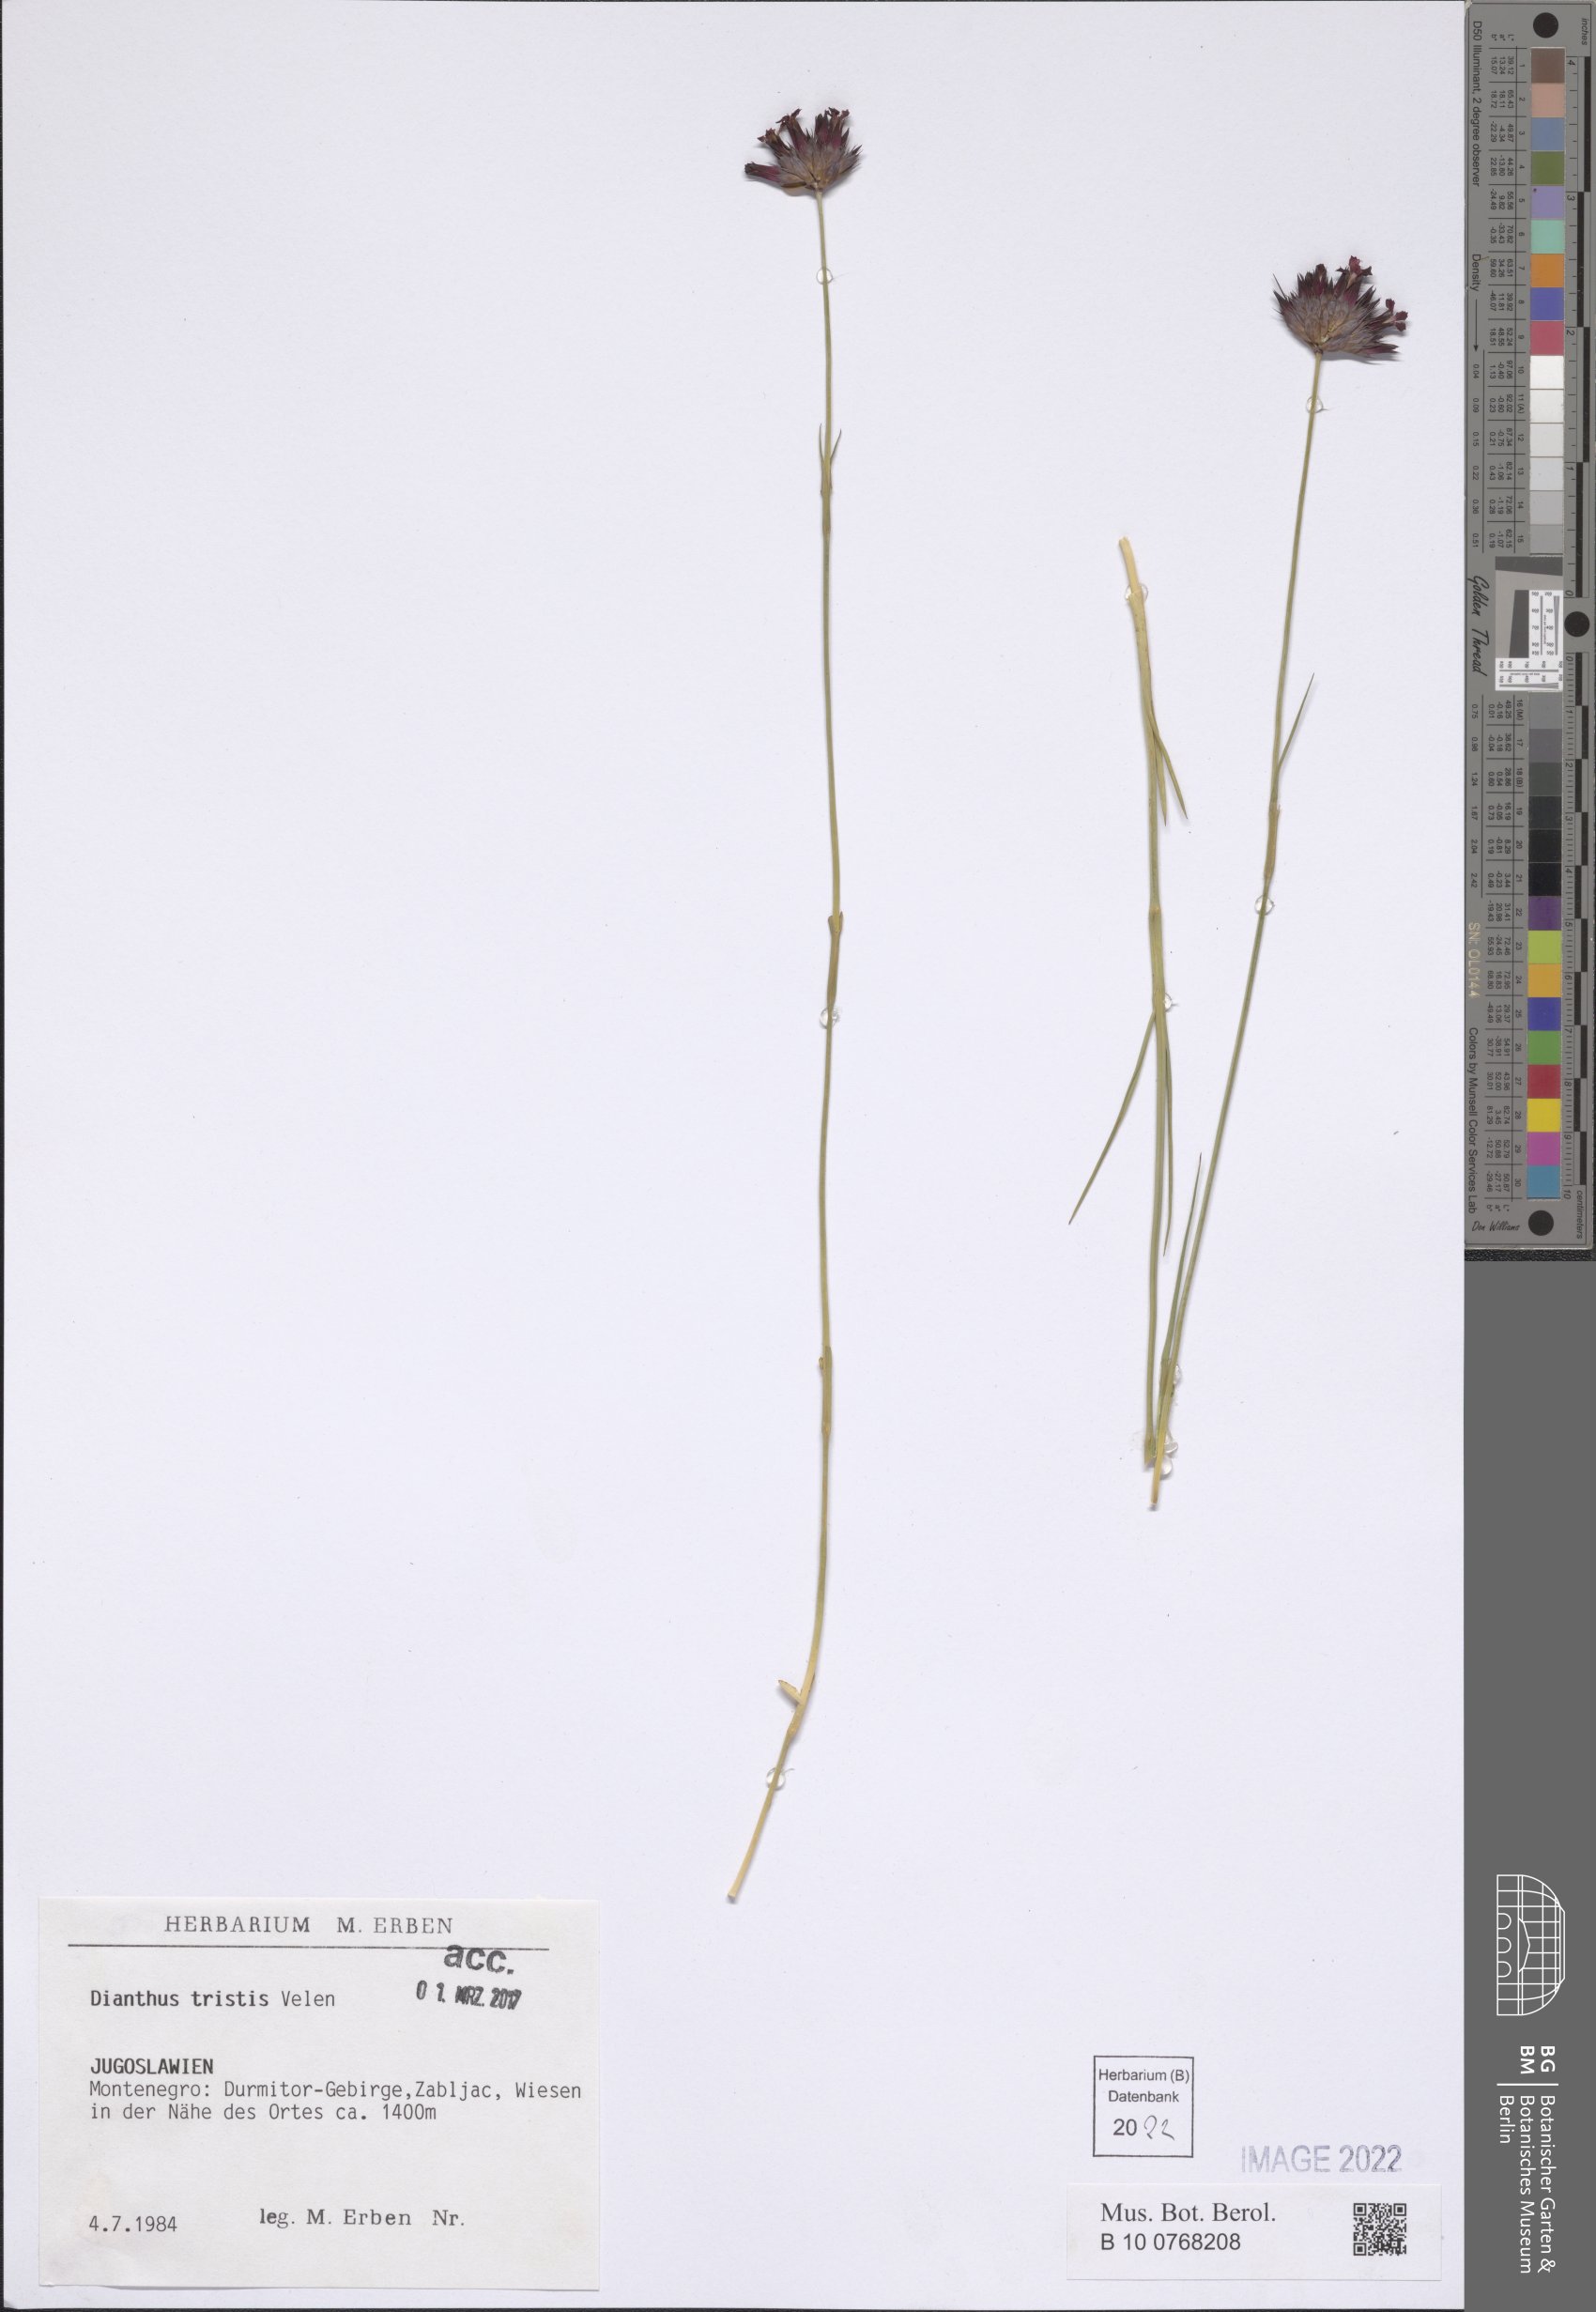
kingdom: Plantae
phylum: Tracheophyta
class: Magnoliopsida
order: Caryophyllales
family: Caryophyllaceae
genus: Dianthus
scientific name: Dianthus pancicii
